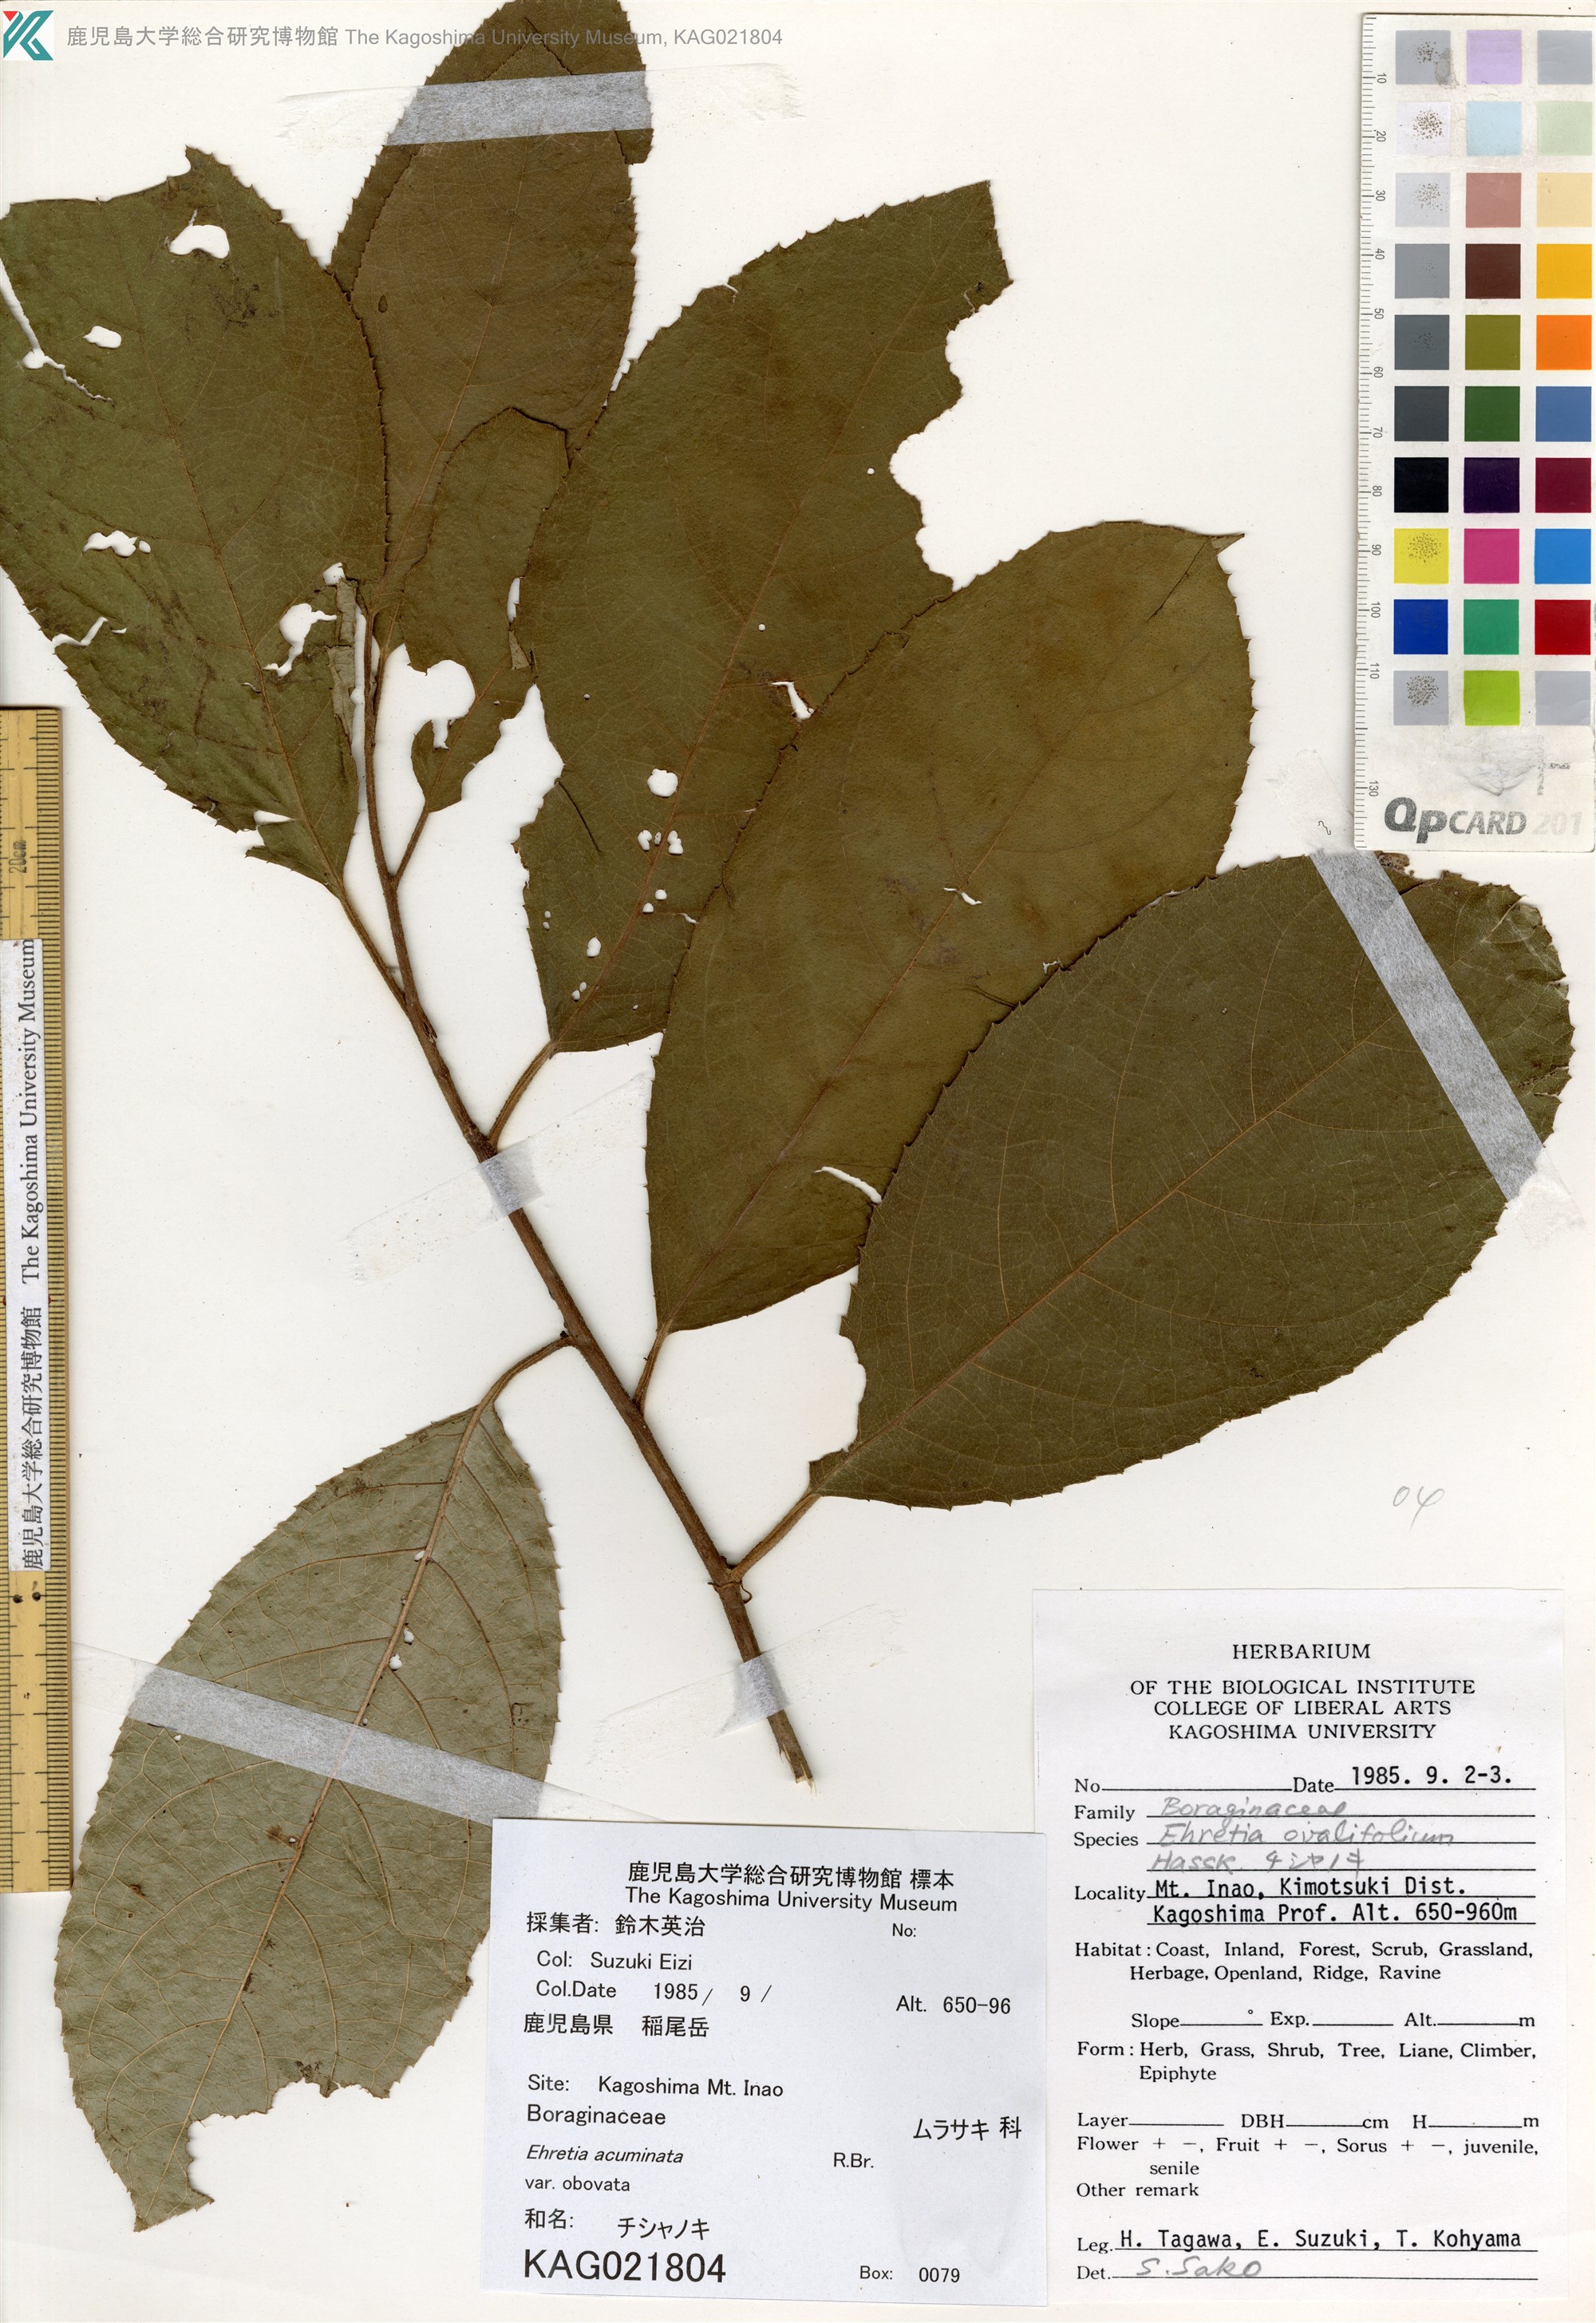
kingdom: Plantae
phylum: Tracheophyta
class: Magnoliopsida
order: Boraginales
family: Ehretiaceae
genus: Ehretia
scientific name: Ehretia acuminata
